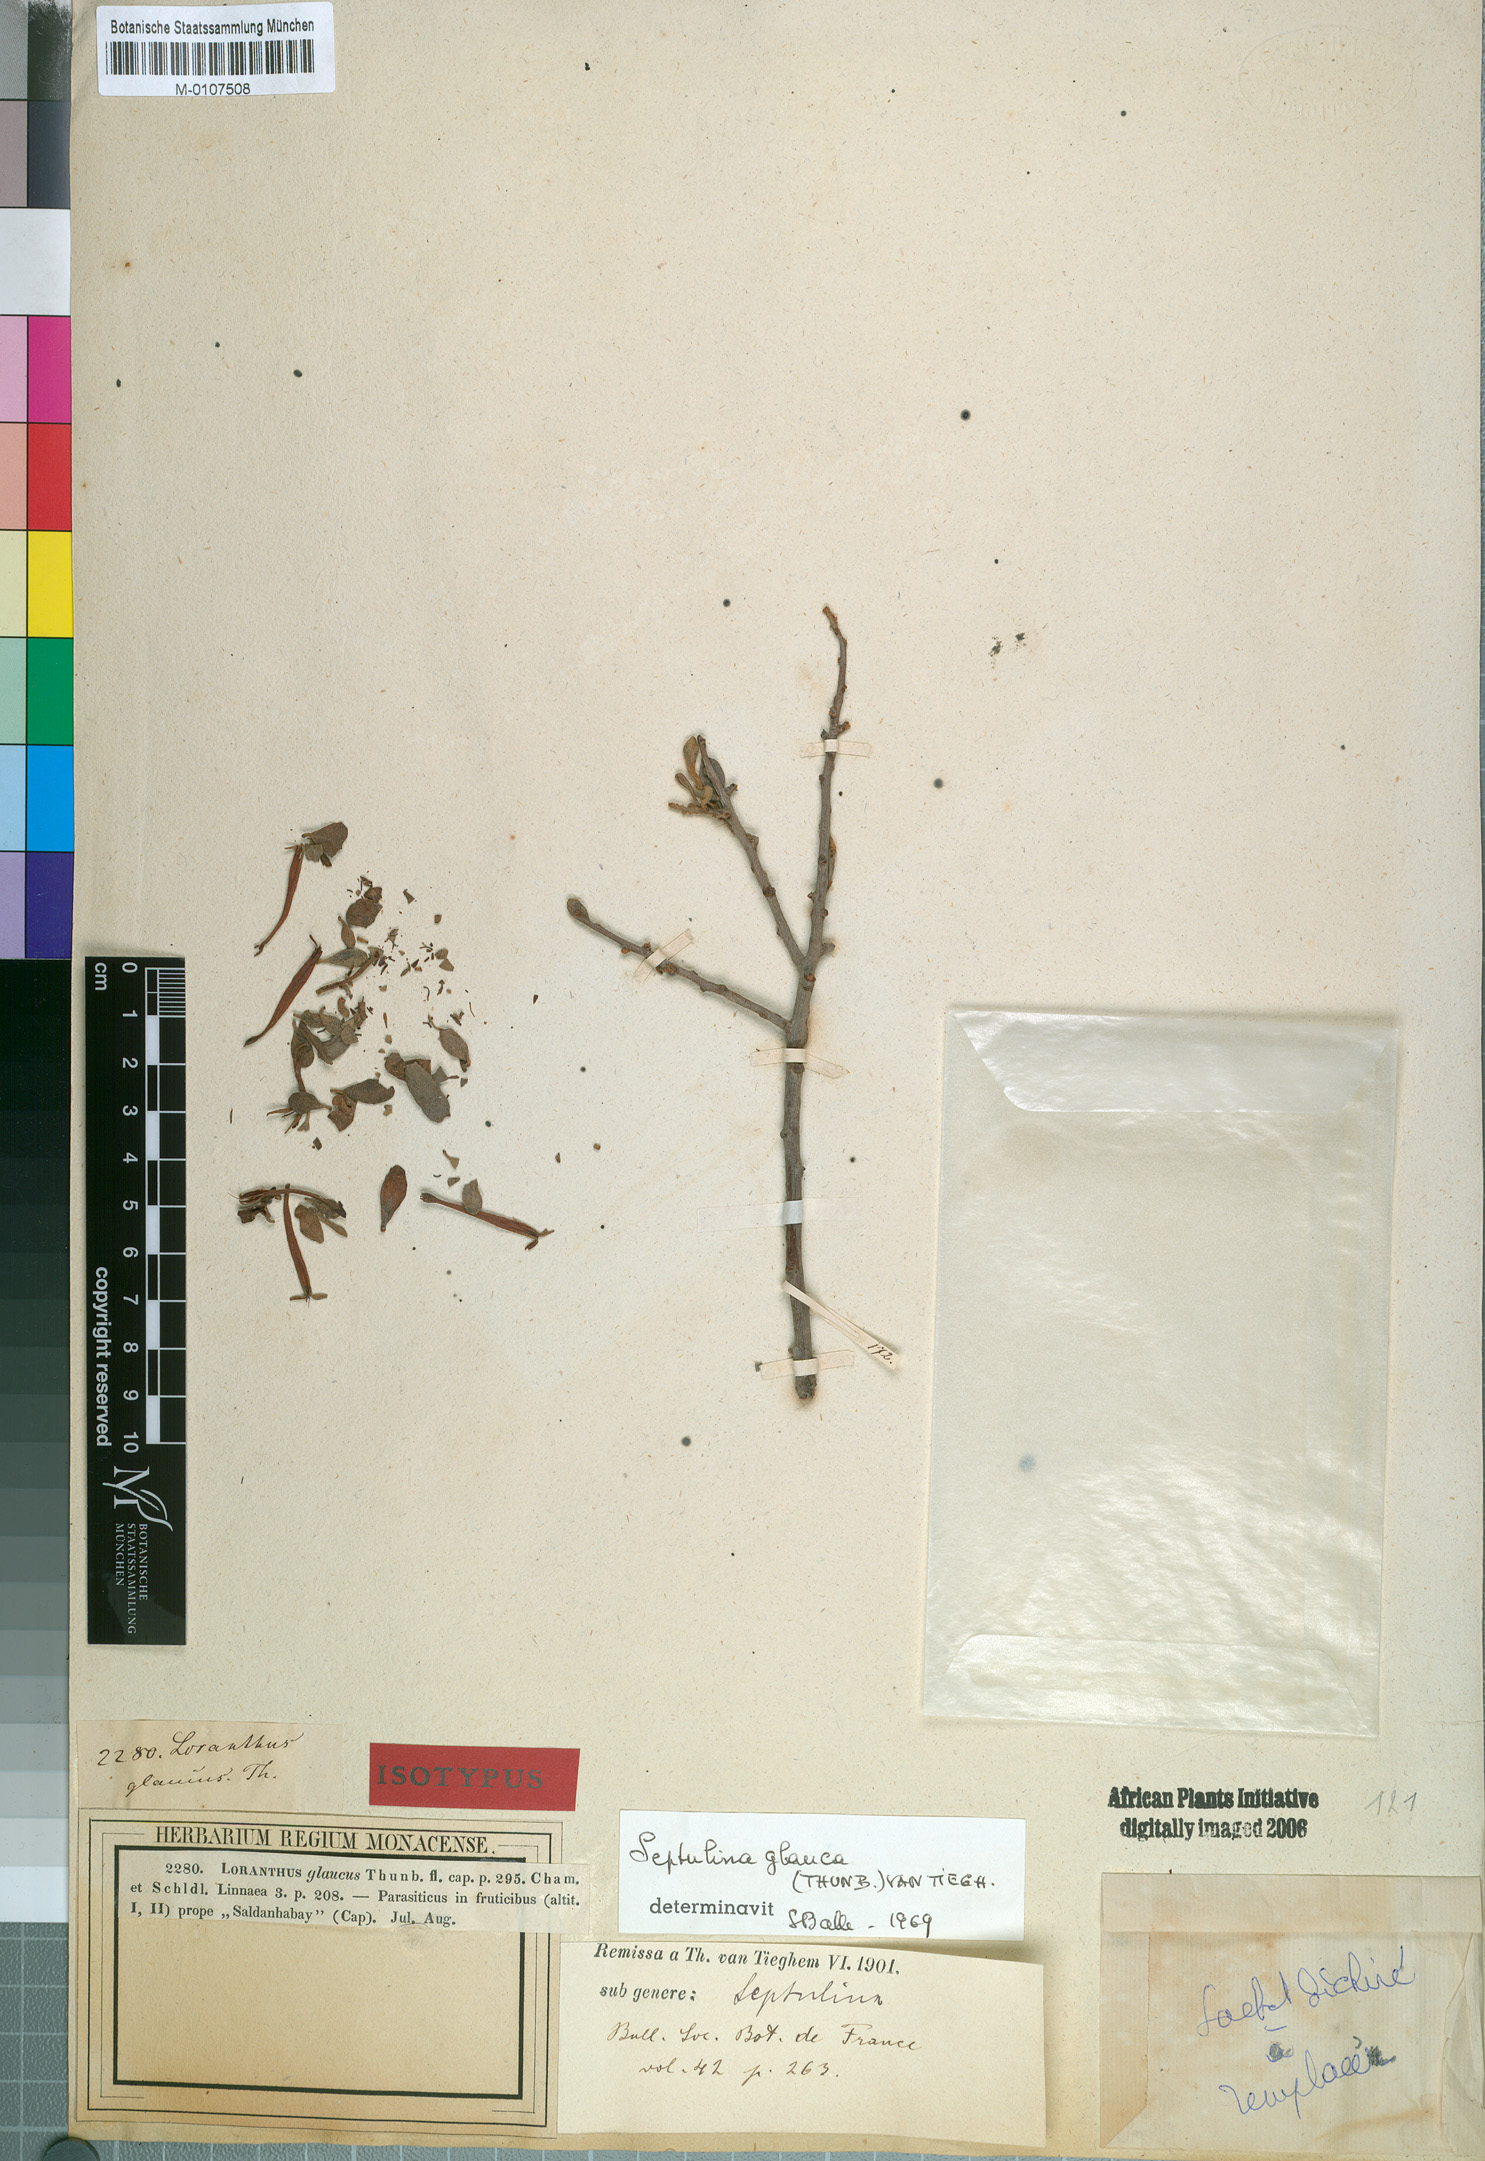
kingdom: Plantae
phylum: Tracheophyta
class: Magnoliopsida
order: Santalales
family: Loranthaceae
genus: Septulina
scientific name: Septulina glauca
